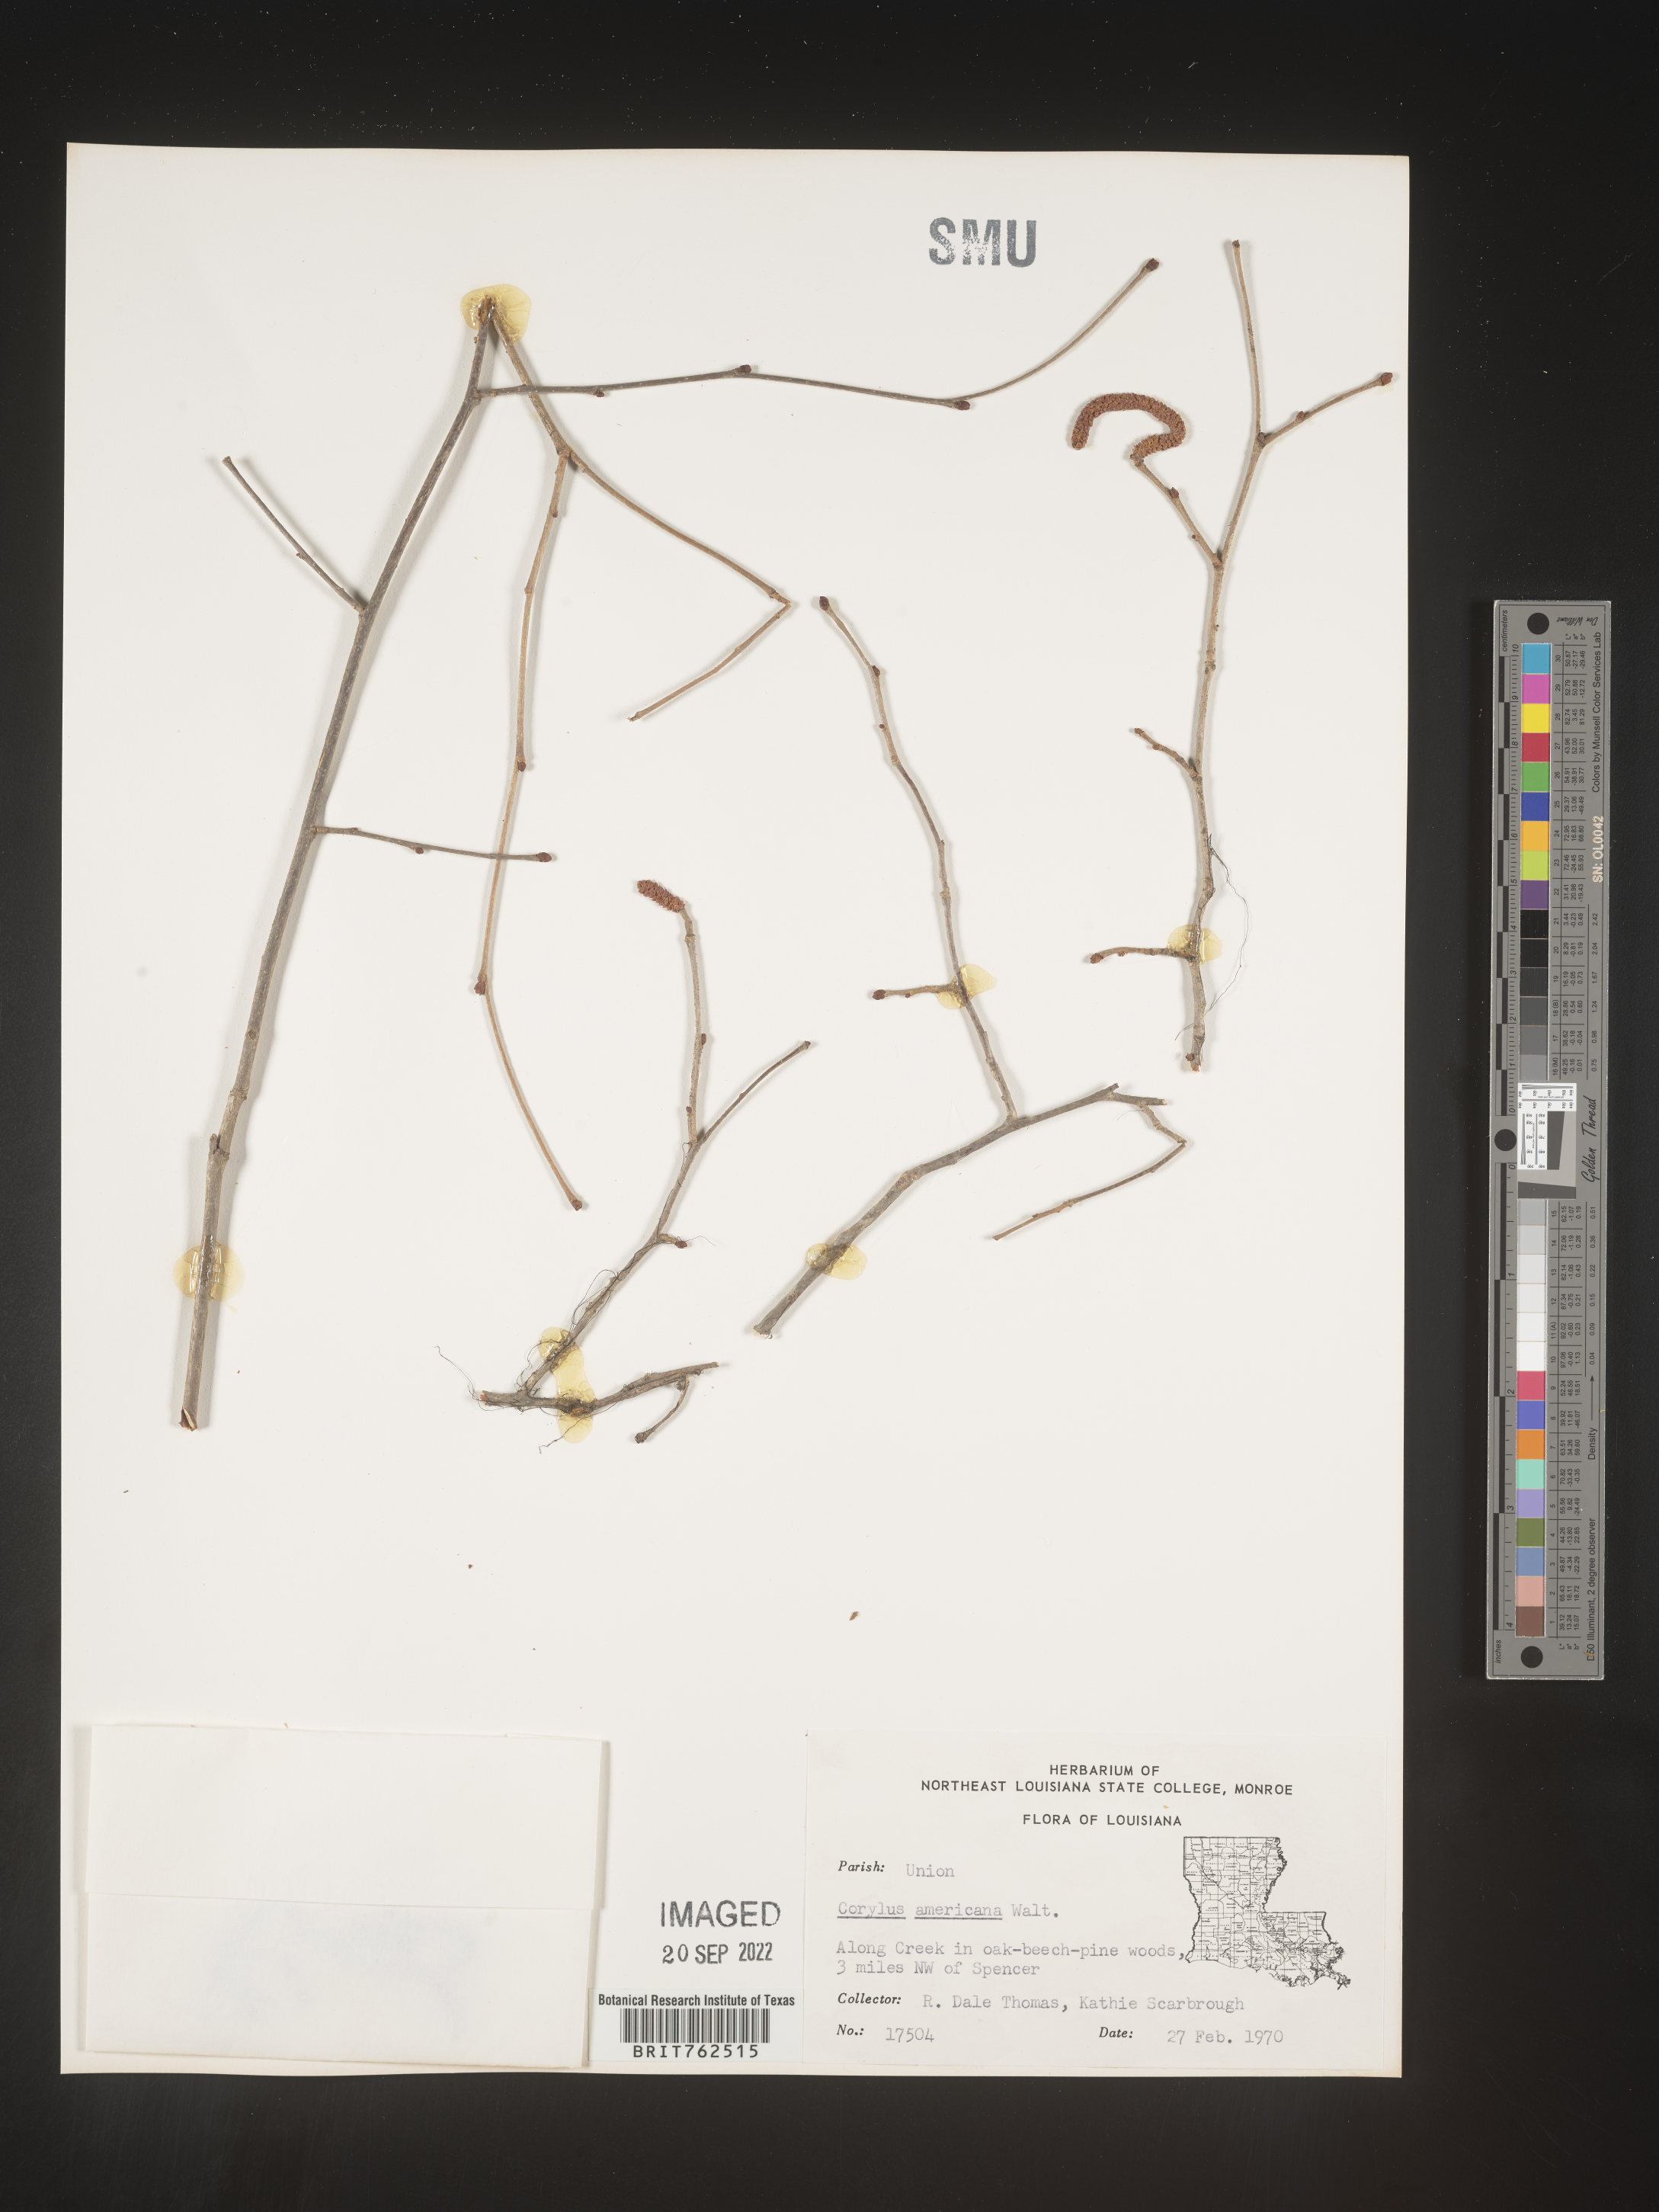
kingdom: Plantae
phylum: Tracheophyta
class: Magnoliopsida
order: Fagales
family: Betulaceae
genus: Corylus
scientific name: Corylus americana
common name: American hazel
